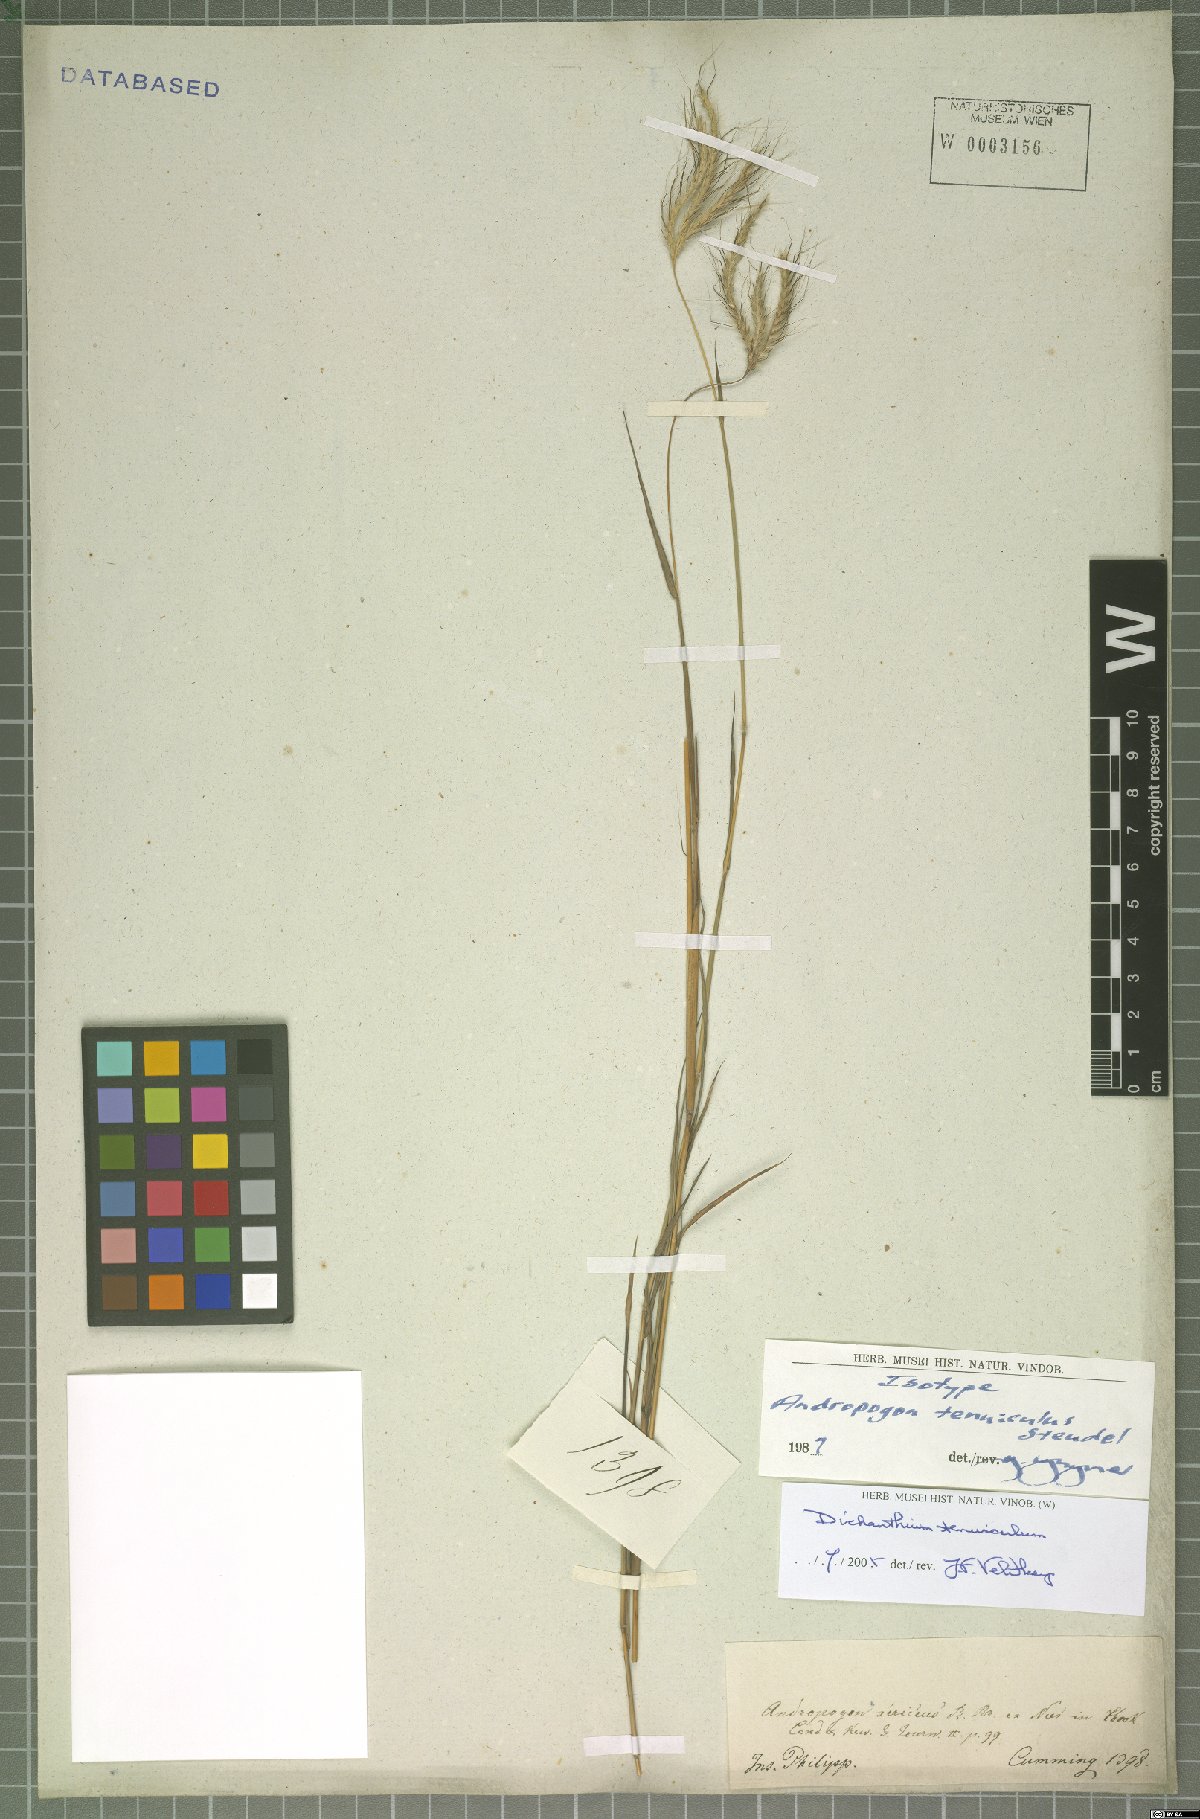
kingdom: Plantae
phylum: Tracheophyta
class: Liliopsida
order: Poales
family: Poaceae
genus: Dichanthium
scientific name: Dichanthium sericeum
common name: Silky bluestem
